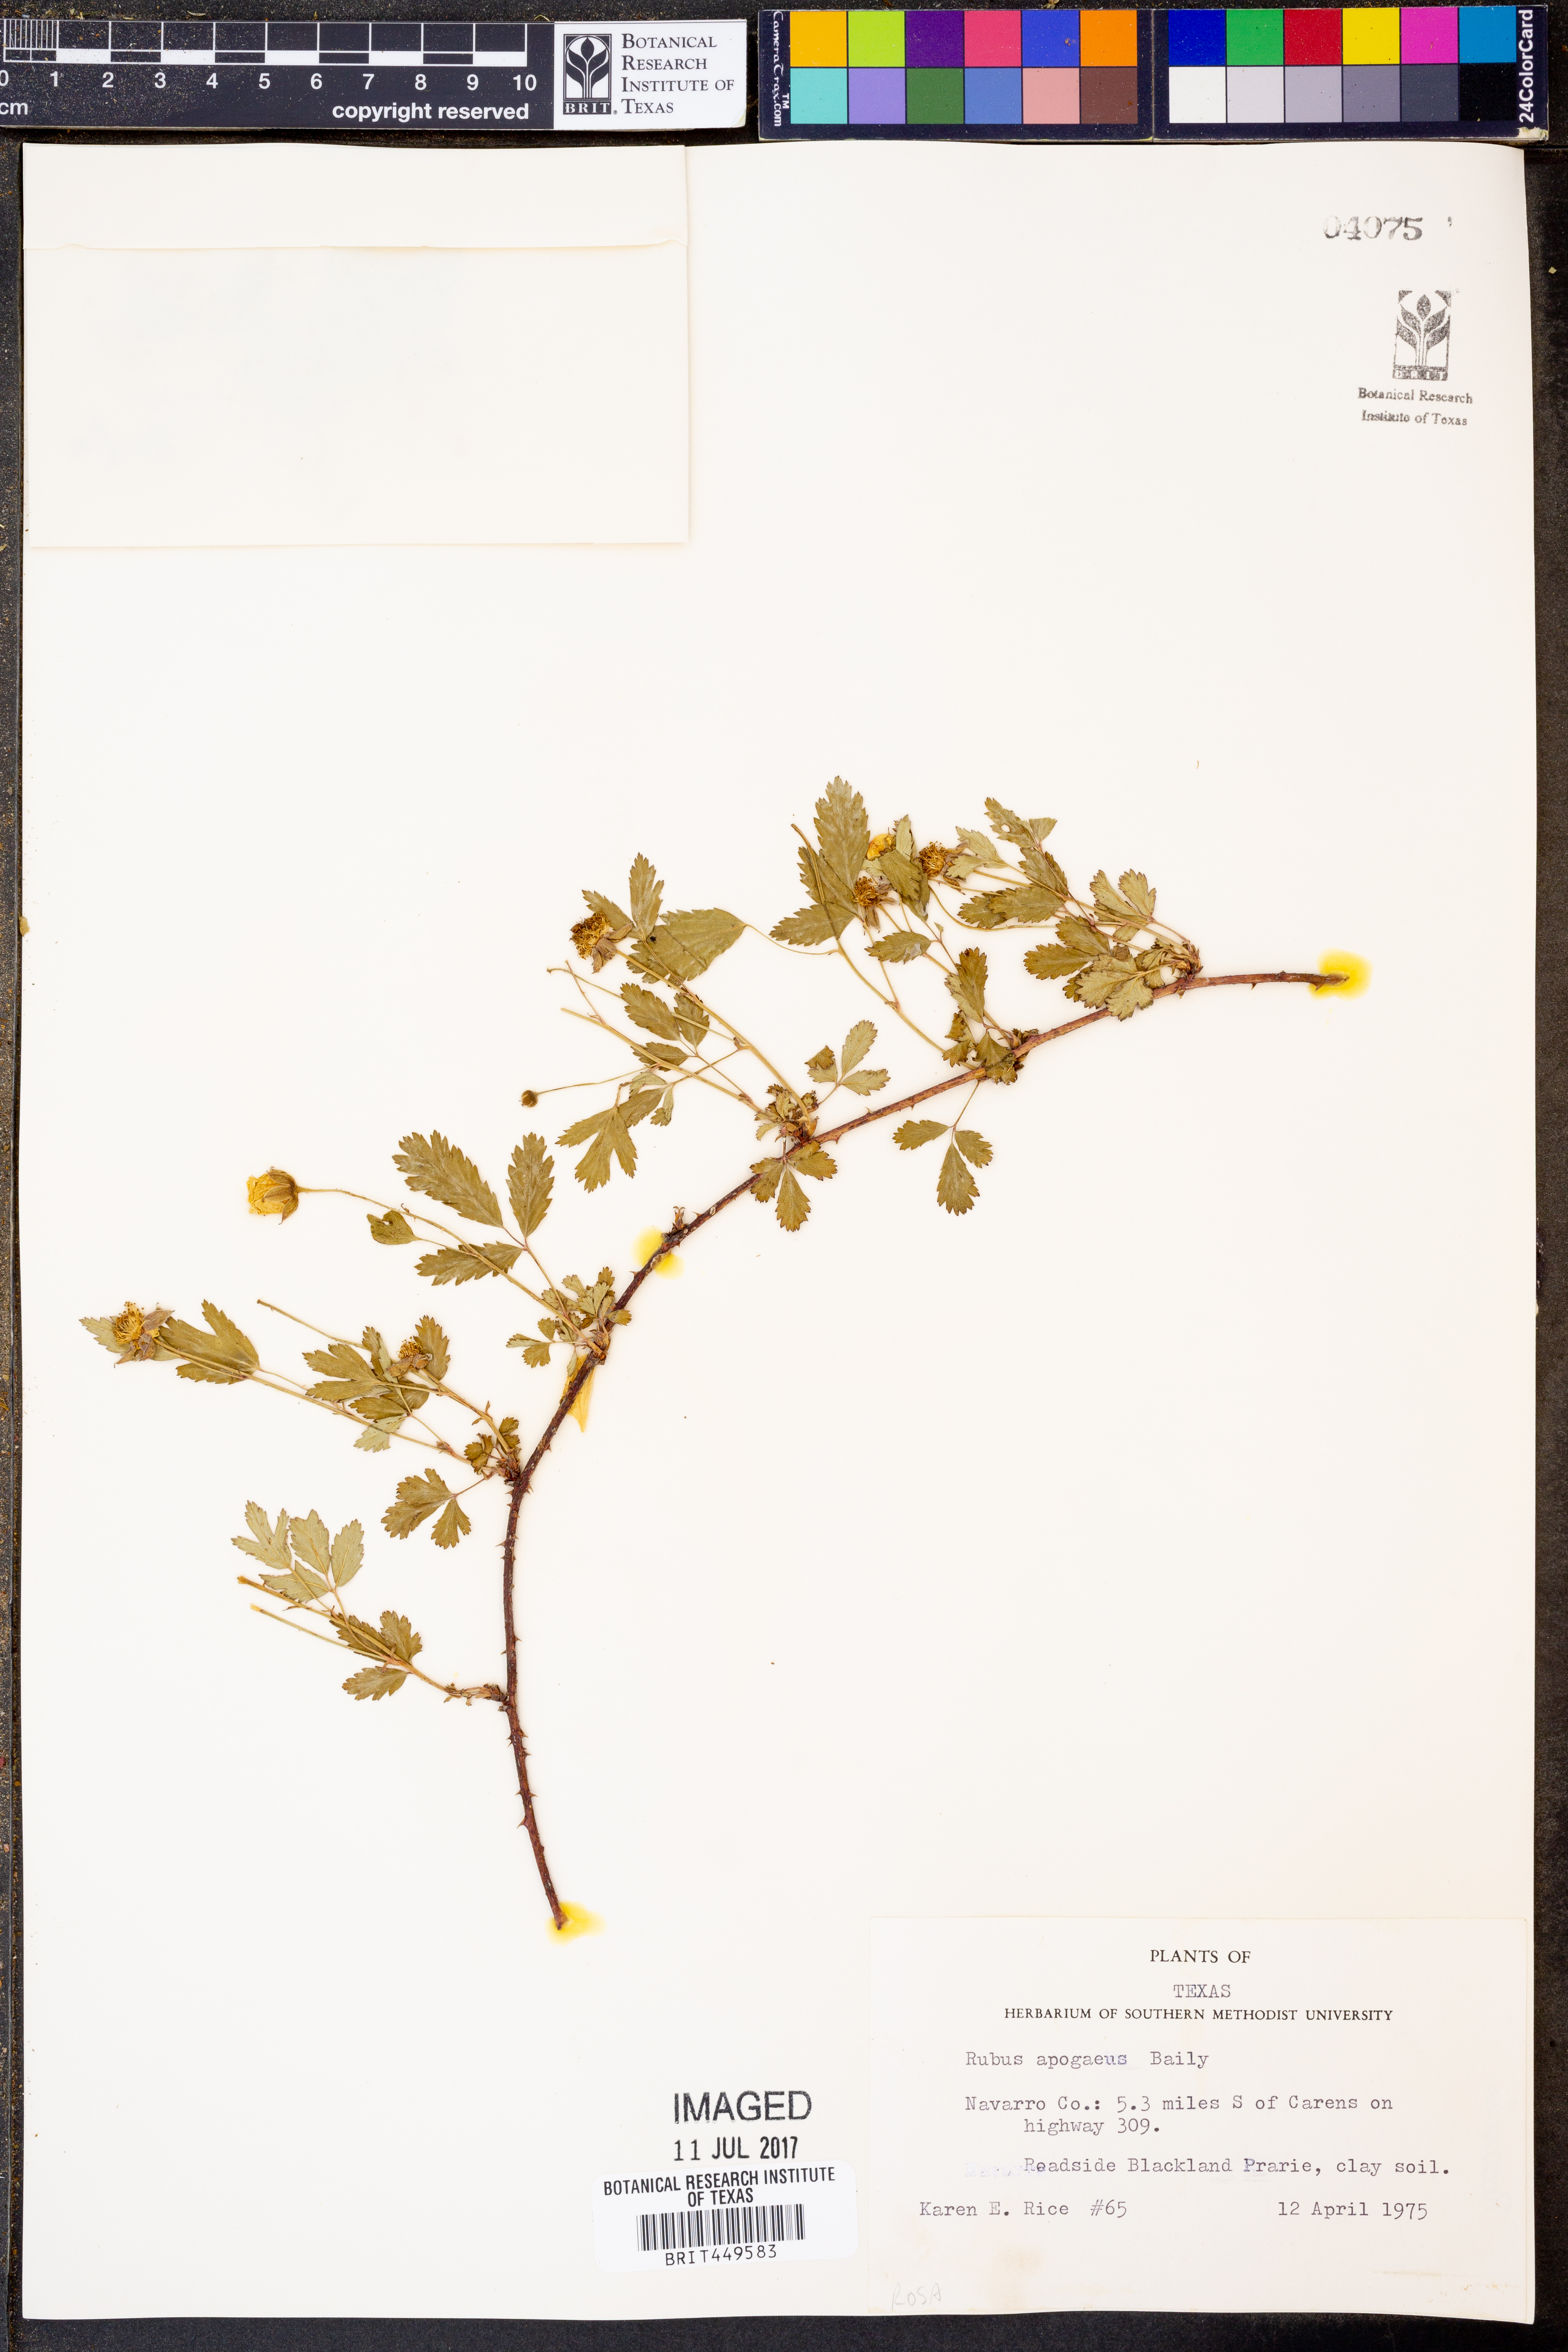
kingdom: Plantae
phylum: Tracheophyta
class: Magnoliopsida
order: Rosales
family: Rosaceae
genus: Rubus
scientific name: Rubus apogaeus
